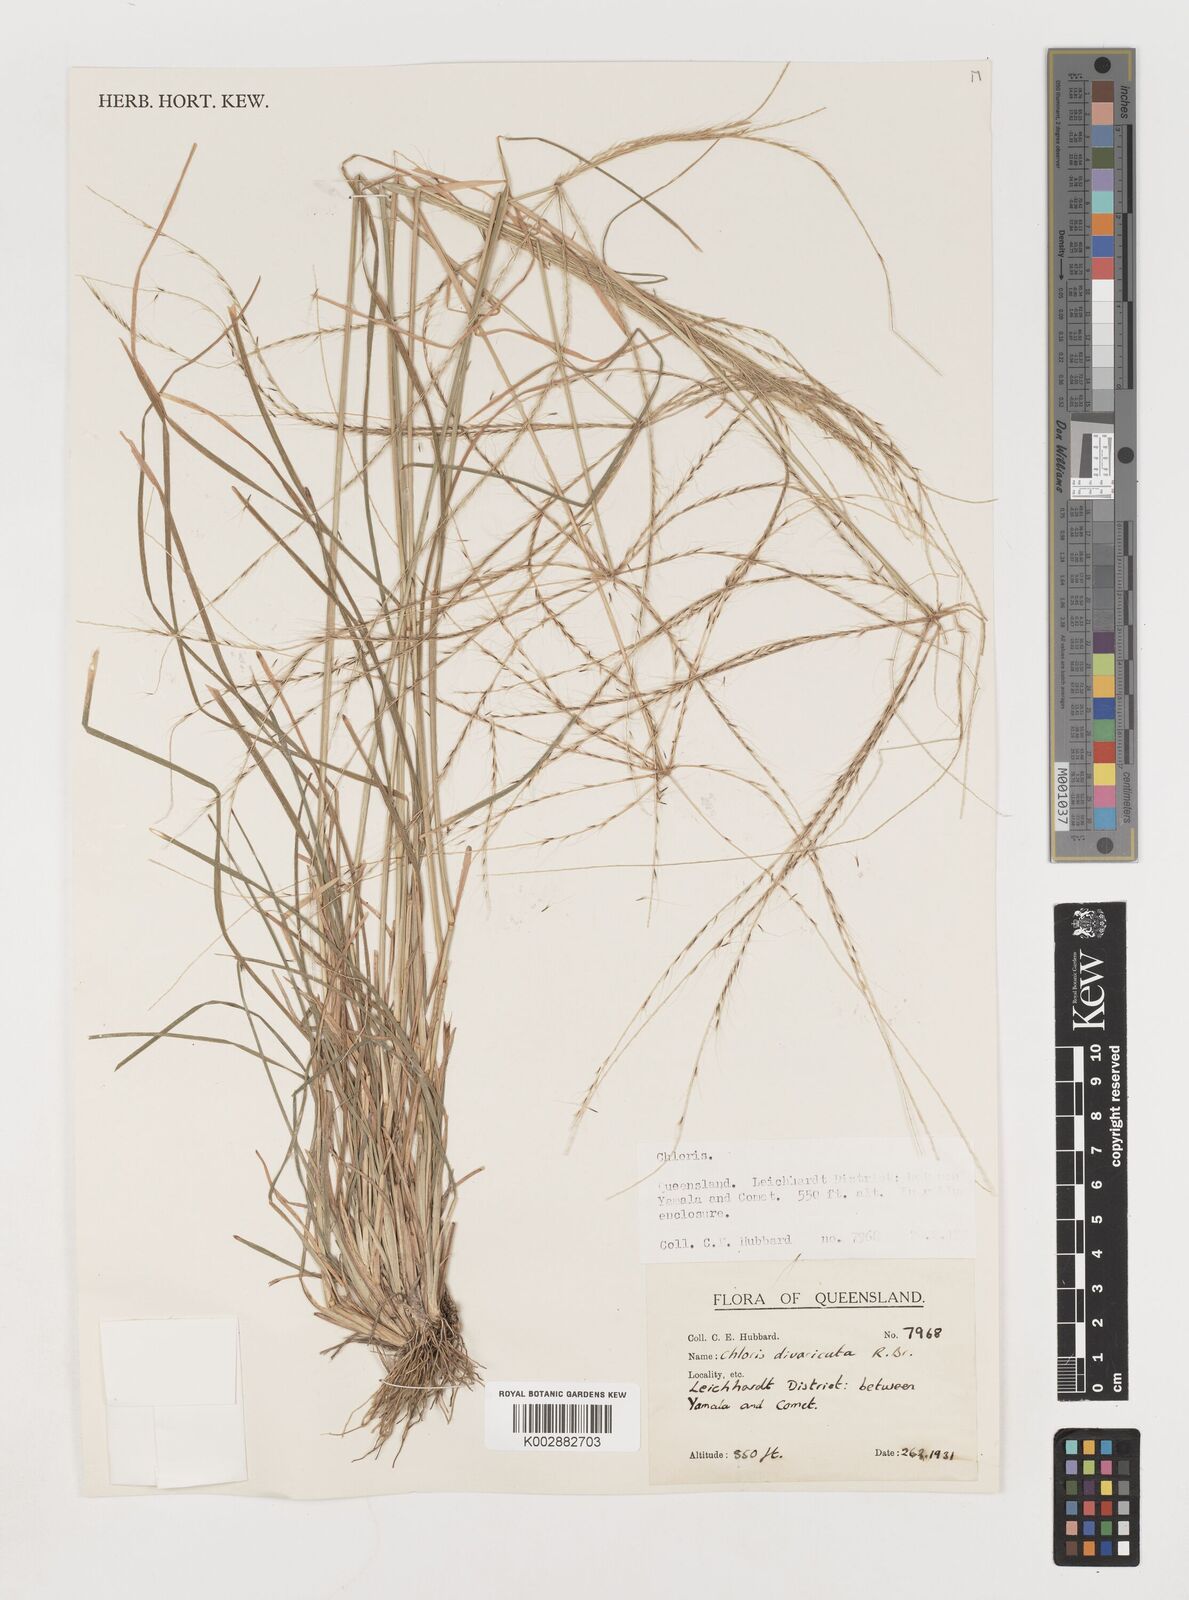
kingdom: Plantae
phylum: Tracheophyta
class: Liliopsida
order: Poales
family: Poaceae
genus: Chloris
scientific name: Chloris divaricata
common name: Spreading windmill grass
